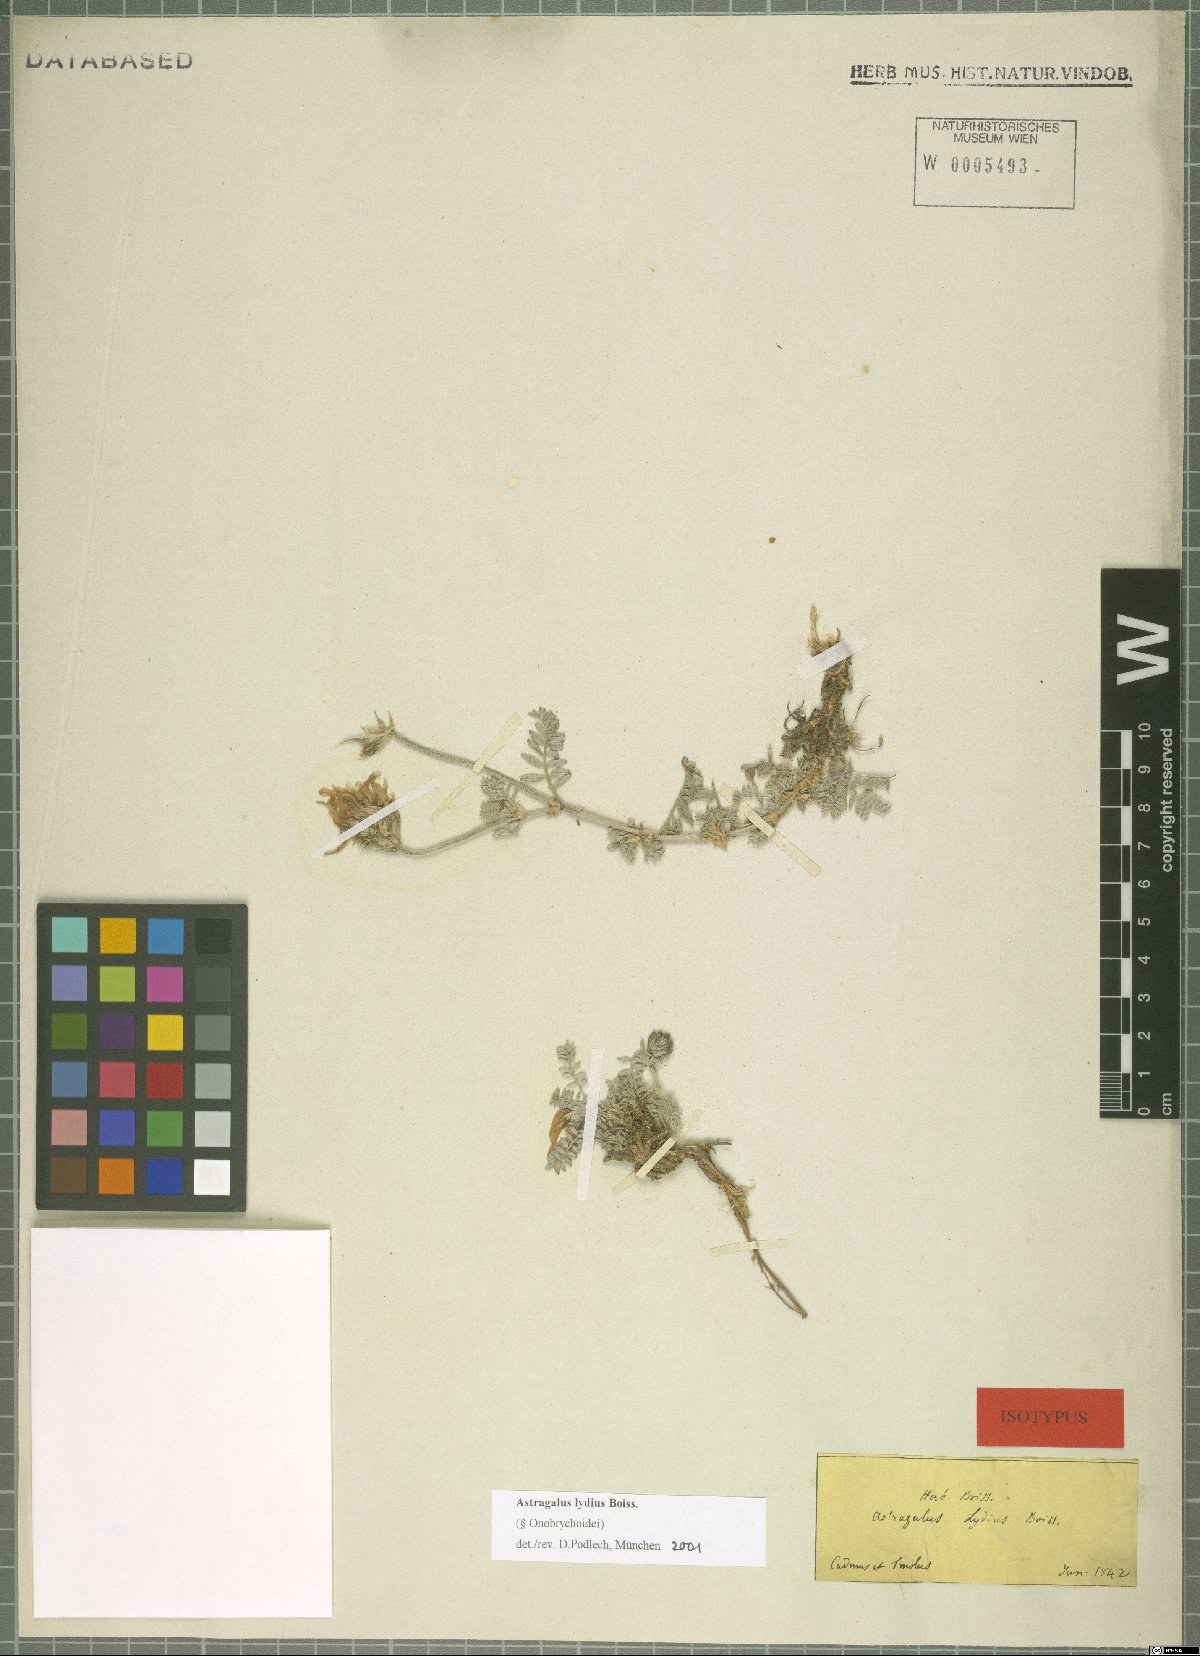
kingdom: Plantae
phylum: Tracheophyta
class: Magnoliopsida
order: Fabales
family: Fabaceae
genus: Astragalus
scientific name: Astragalus mesogitanus
